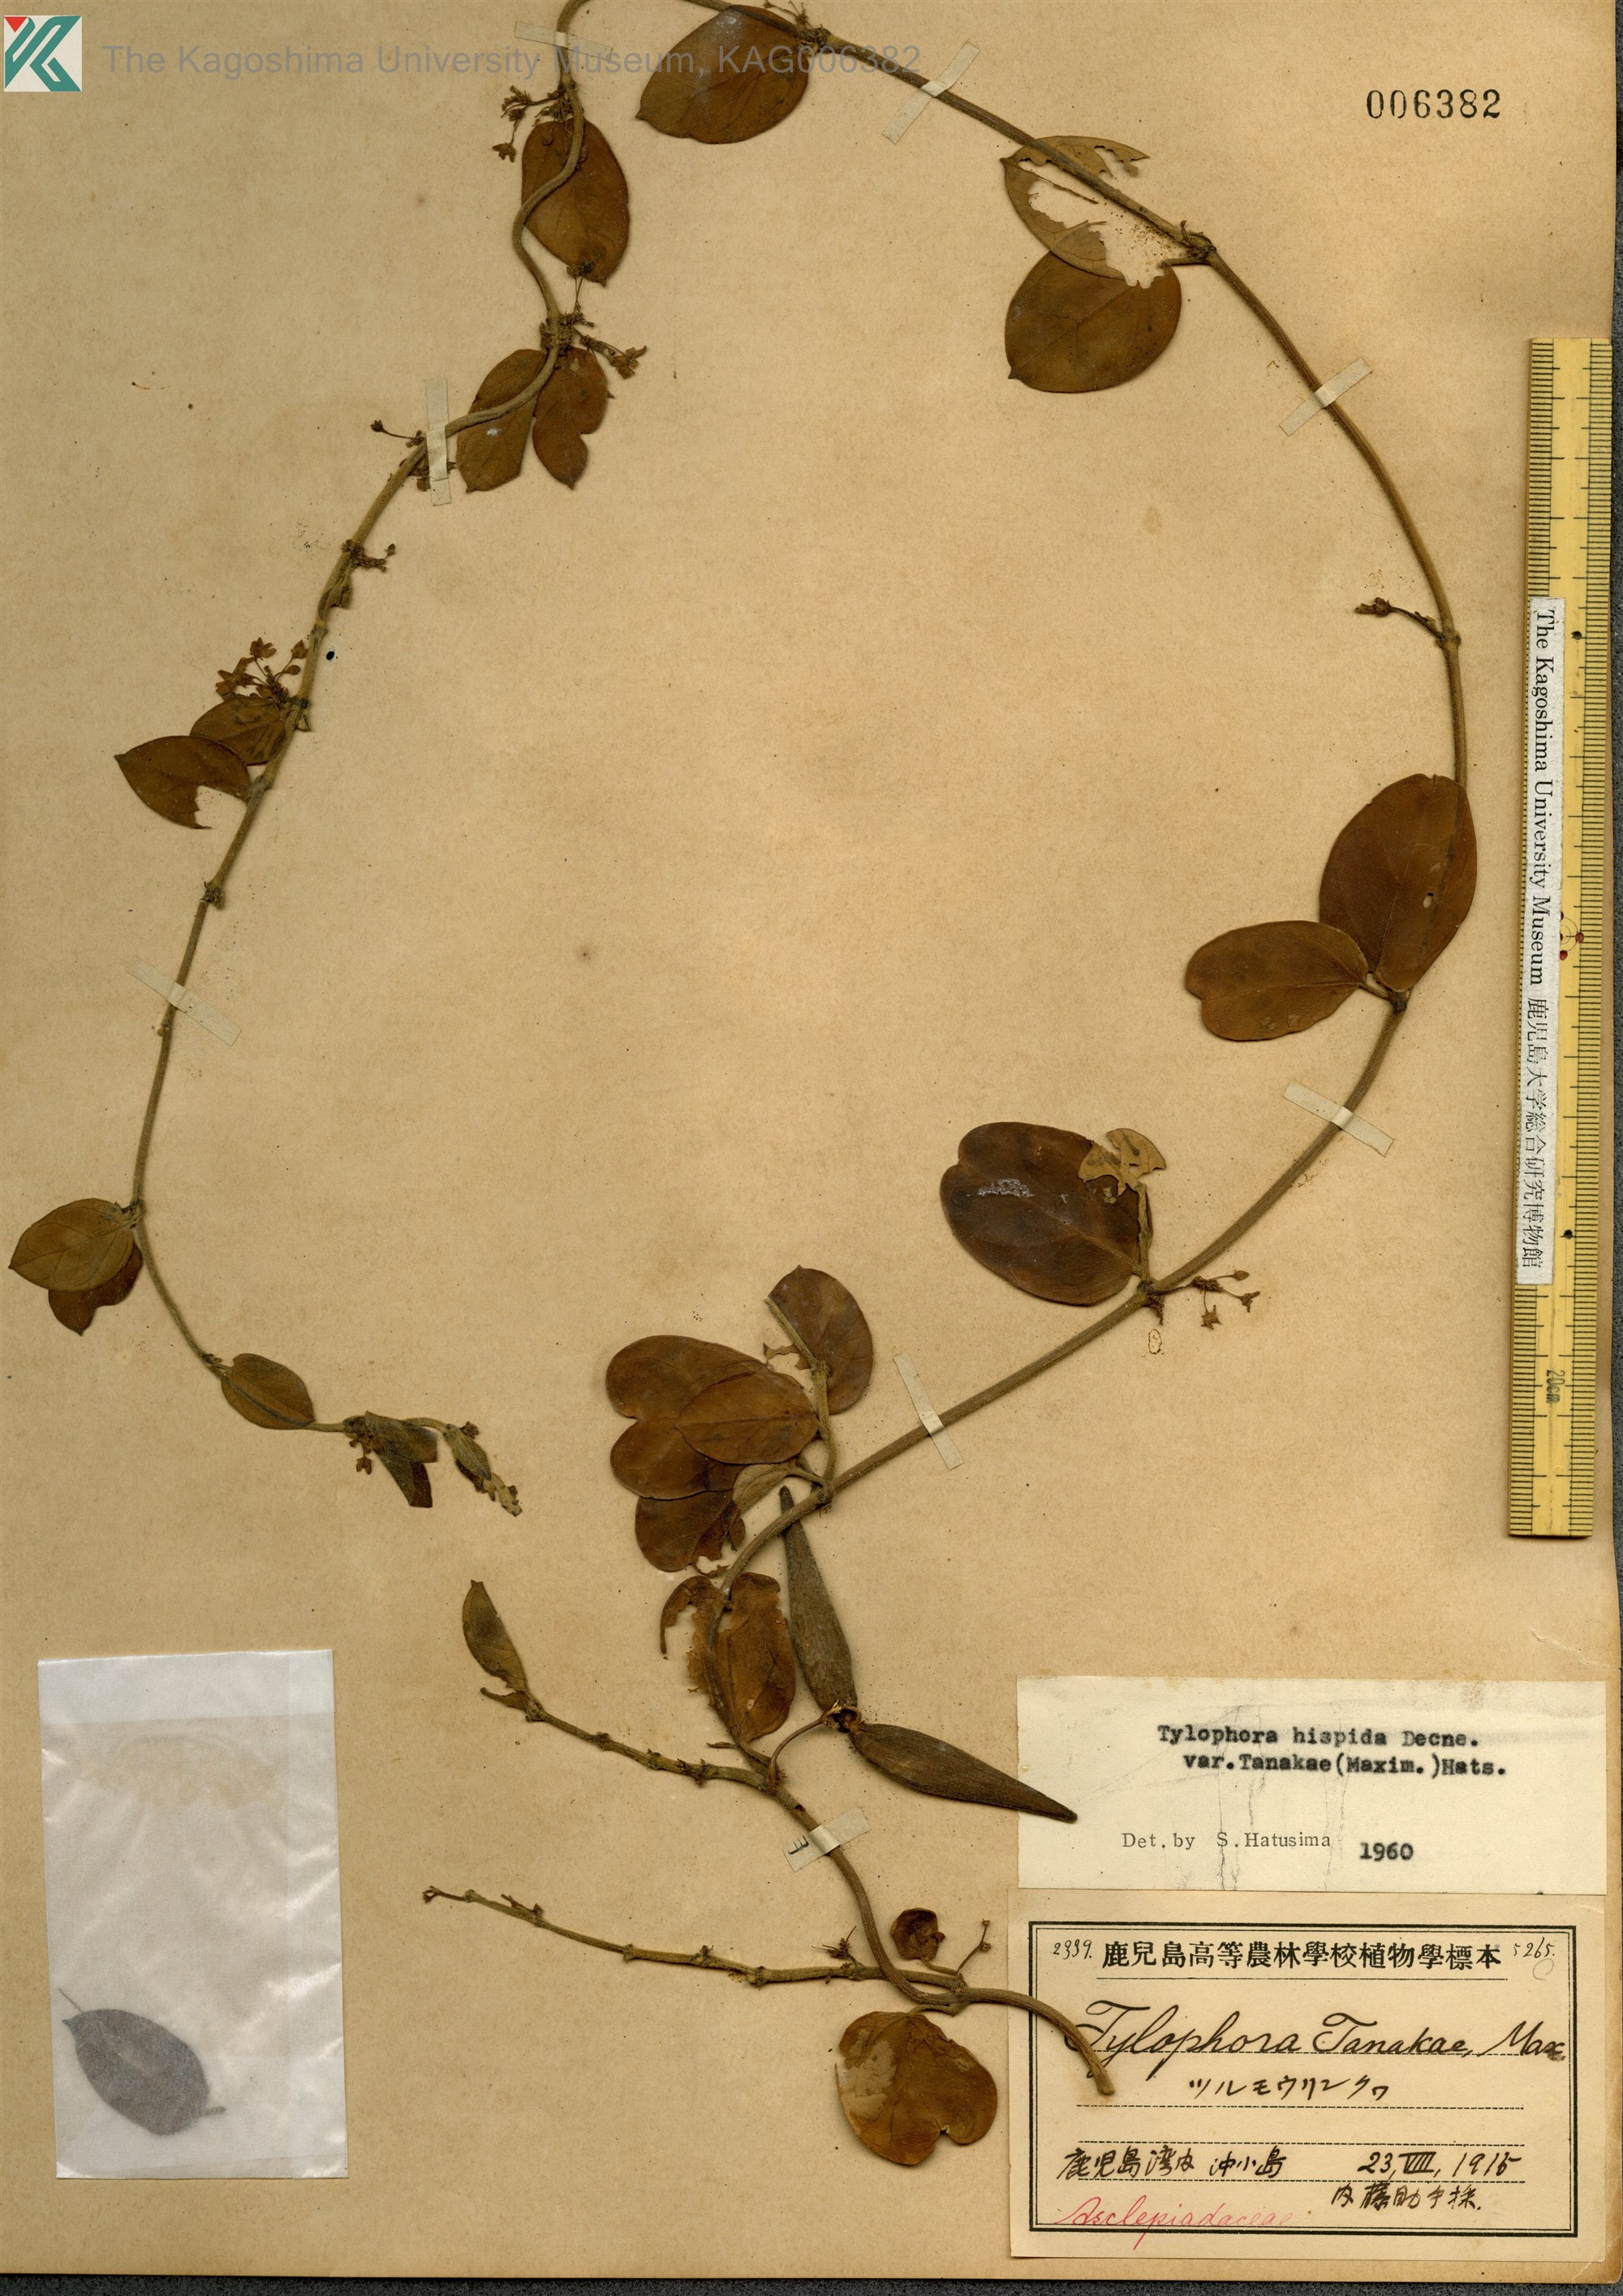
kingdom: Plantae
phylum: Tracheophyta
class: Magnoliopsida
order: Gentianales
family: Apocynaceae
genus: Vincetoxicum
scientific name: Vincetoxicum Tylophora tanakae
